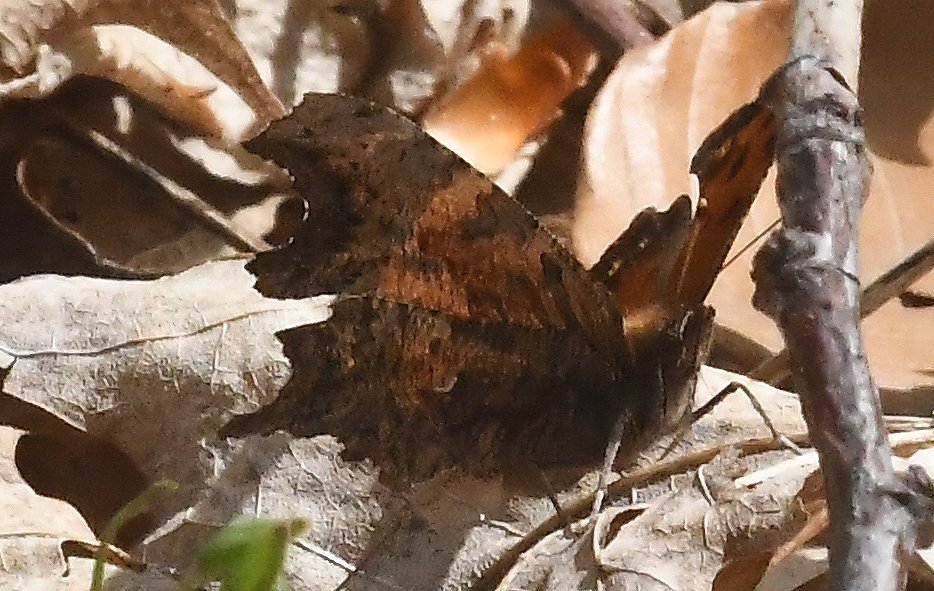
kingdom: Animalia
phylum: Arthropoda
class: Insecta
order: Lepidoptera
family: Nymphalidae
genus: Polygonia
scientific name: Polygonia progne
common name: Gray Comma
